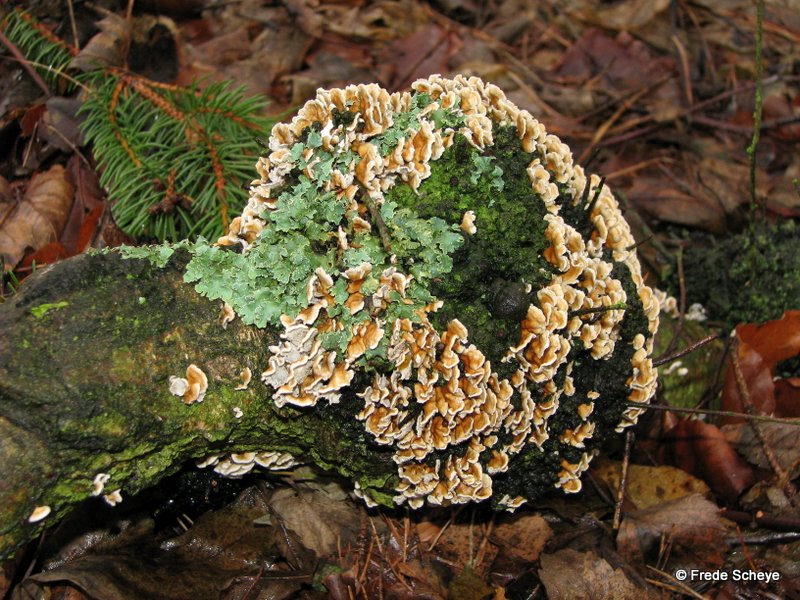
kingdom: Fungi
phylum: Basidiomycota
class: Agaricomycetes
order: Amylocorticiales
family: Amylocorticiaceae
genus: Plicaturopsis
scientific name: Plicaturopsis crispa
